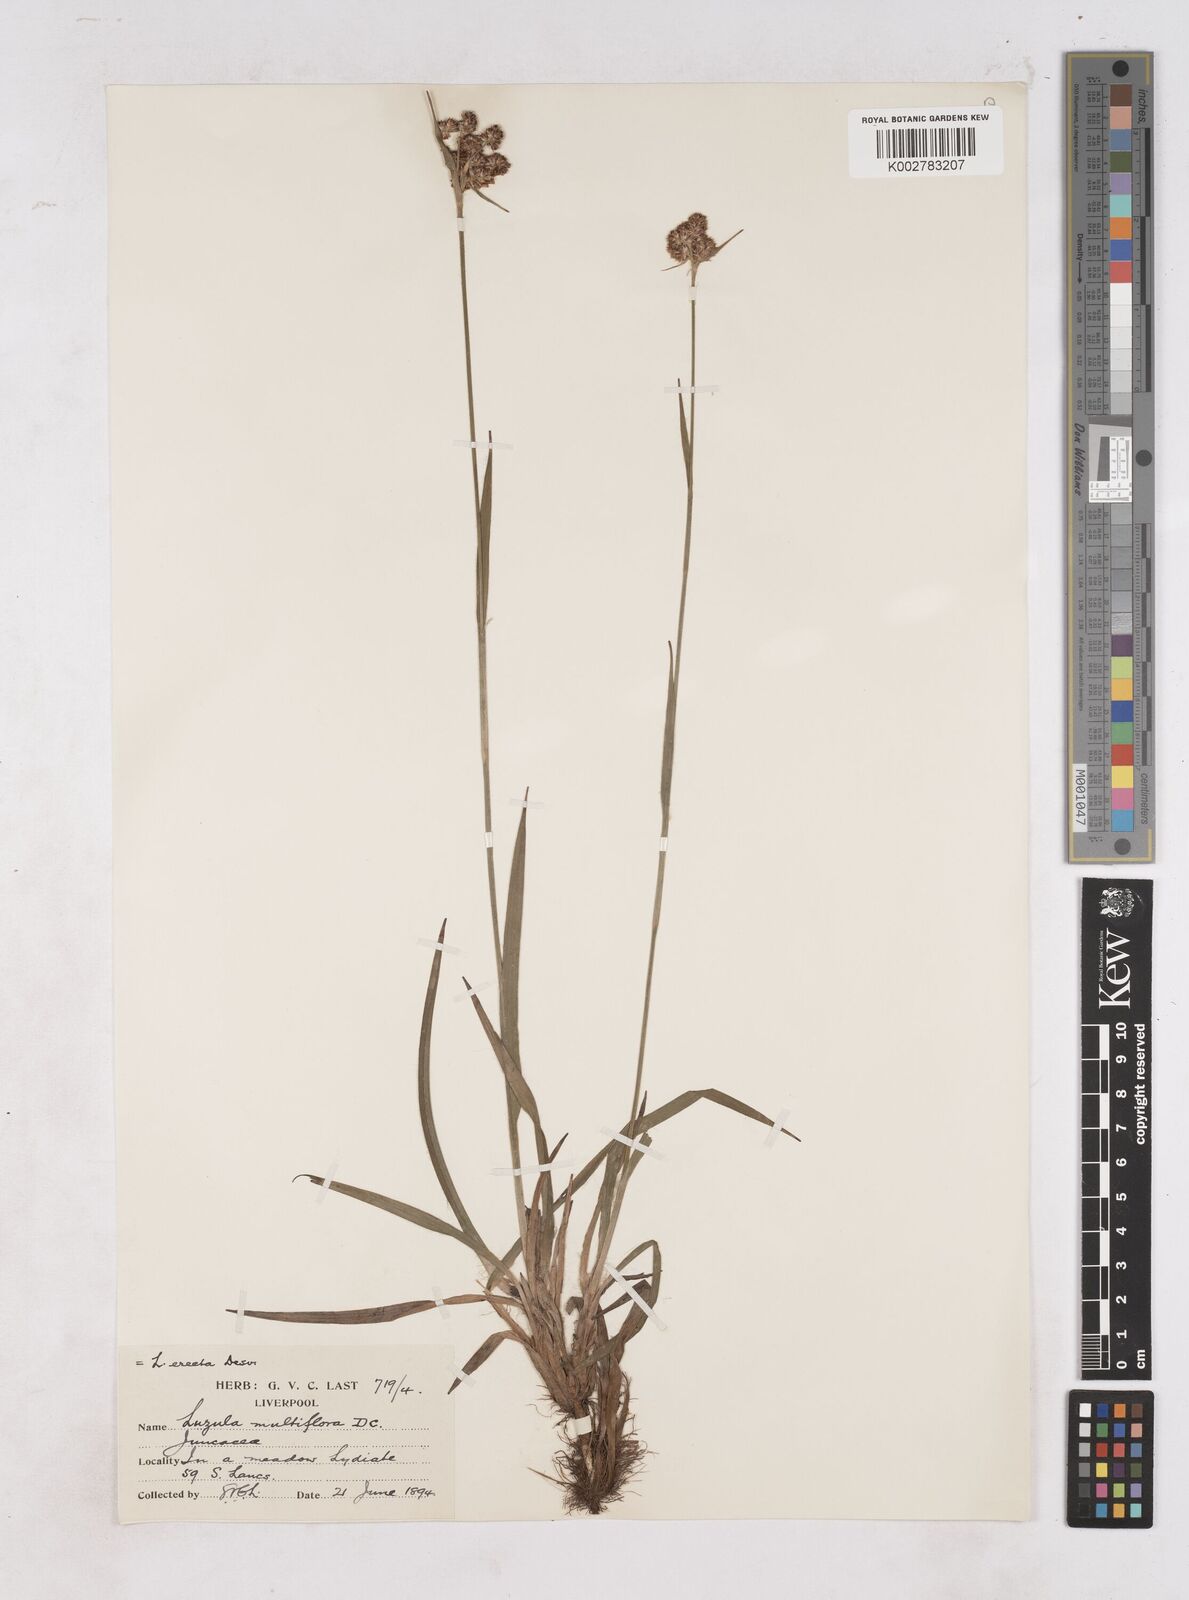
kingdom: Plantae
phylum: Tracheophyta
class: Liliopsida
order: Poales
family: Juncaceae
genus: Luzula
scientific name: Luzula multiflora
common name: Heath wood-rush
